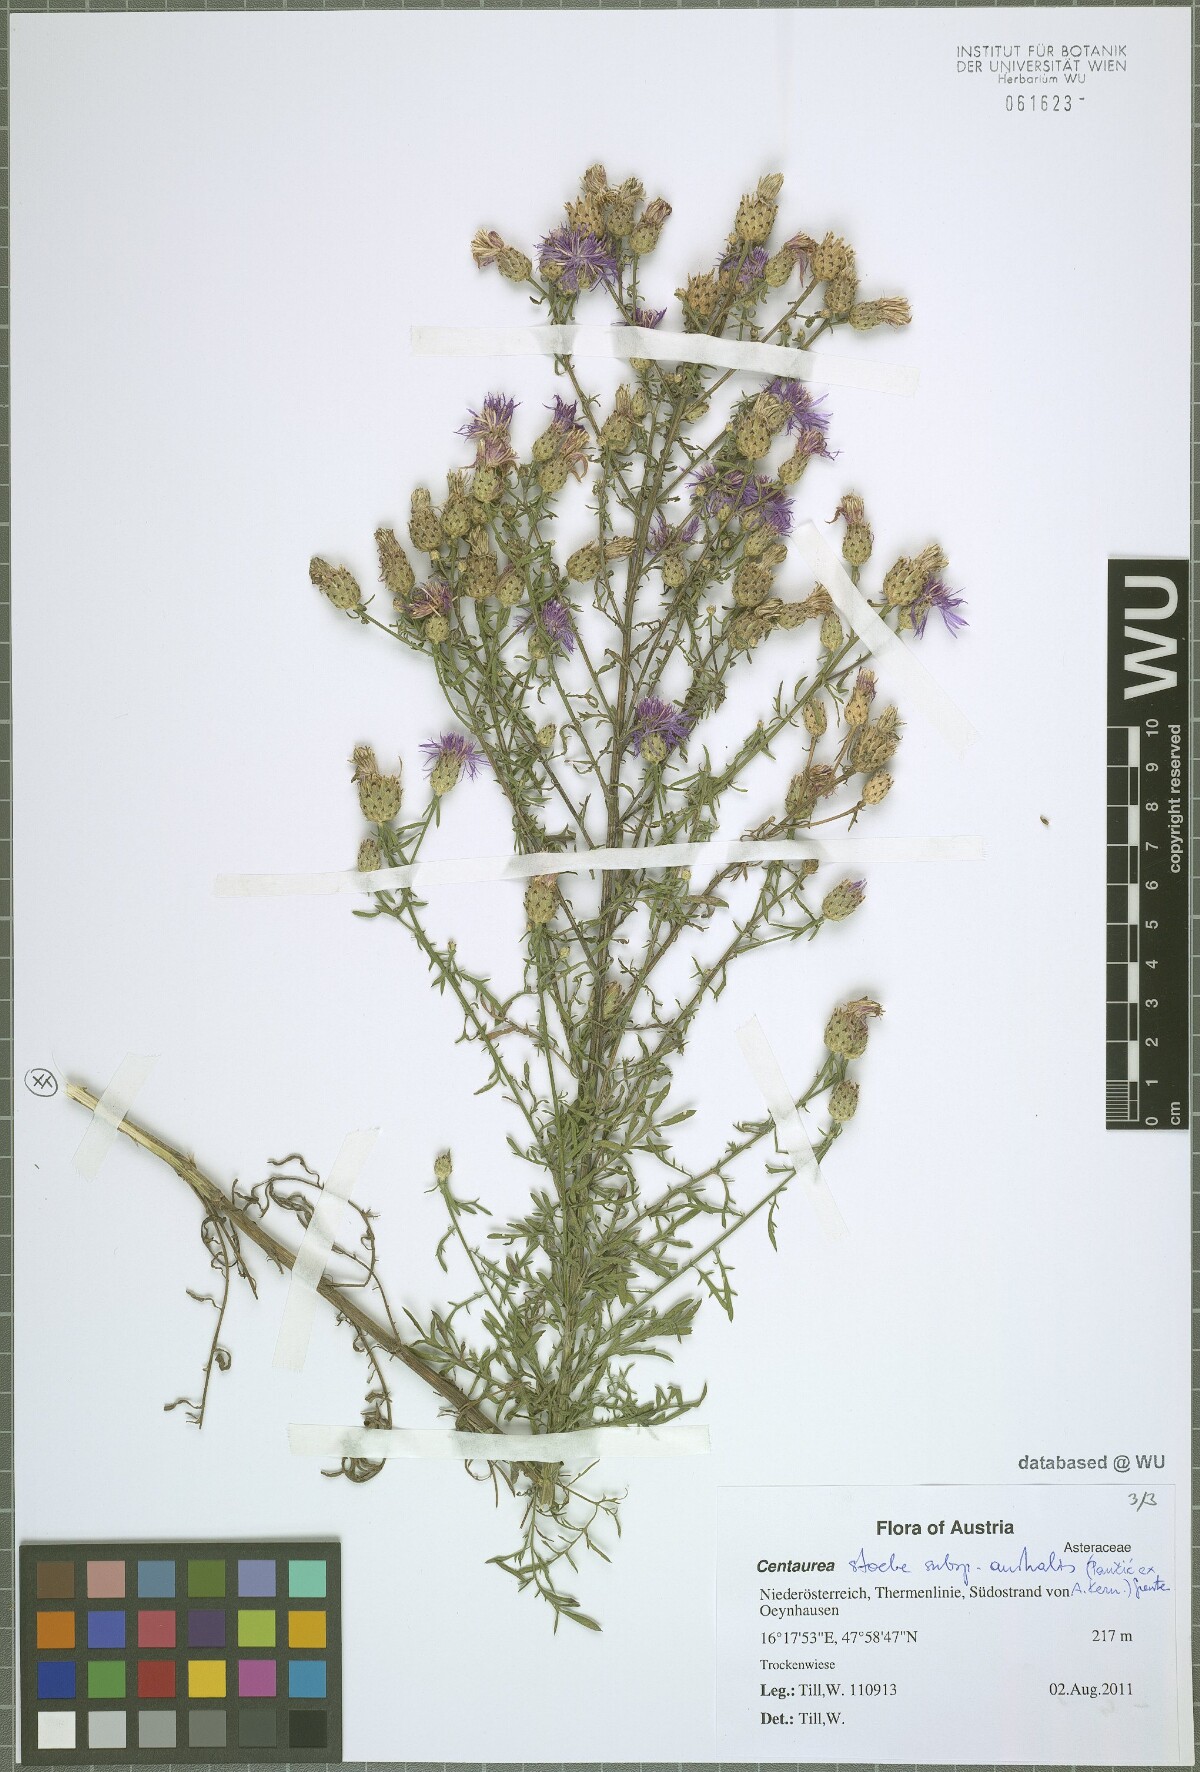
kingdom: Plantae
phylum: Tracheophyta
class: Magnoliopsida
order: Asterales
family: Asteraceae
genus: Centaurea
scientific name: Centaurea australis
